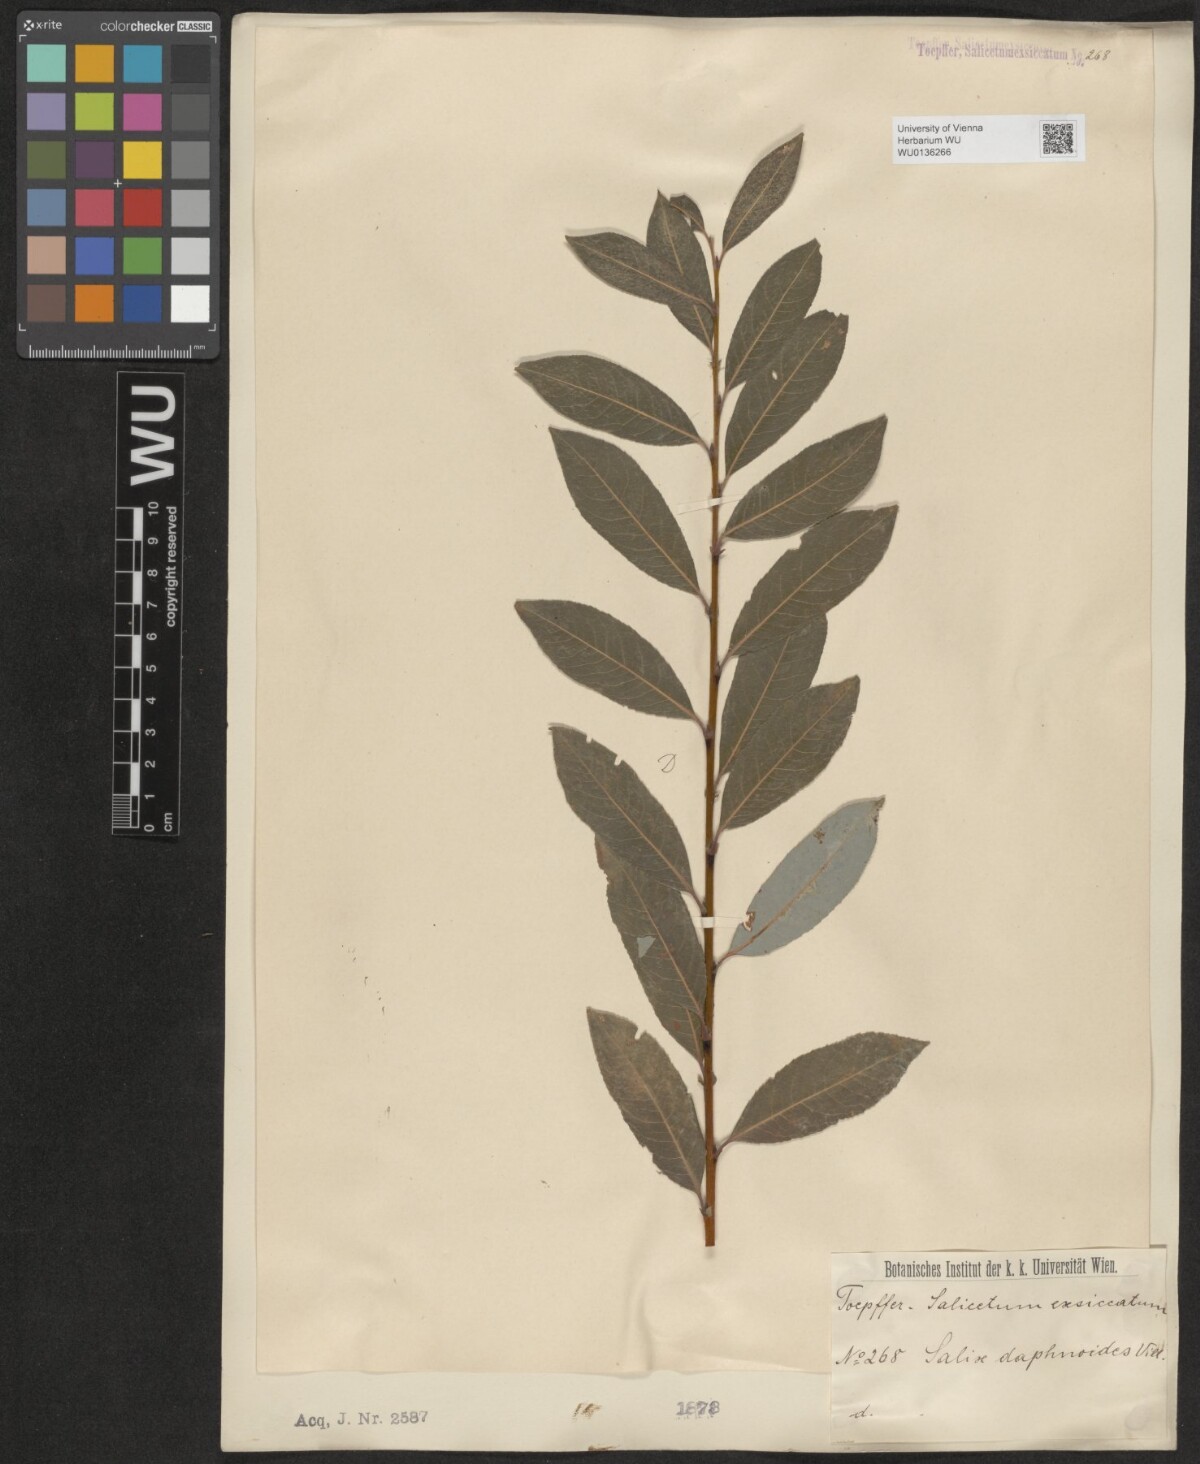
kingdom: Plantae
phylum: Tracheophyta
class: Magnoliopsida
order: Malpighiales
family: Salicaceae
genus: Salix
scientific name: Salix daphnoides
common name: European violet-willow
